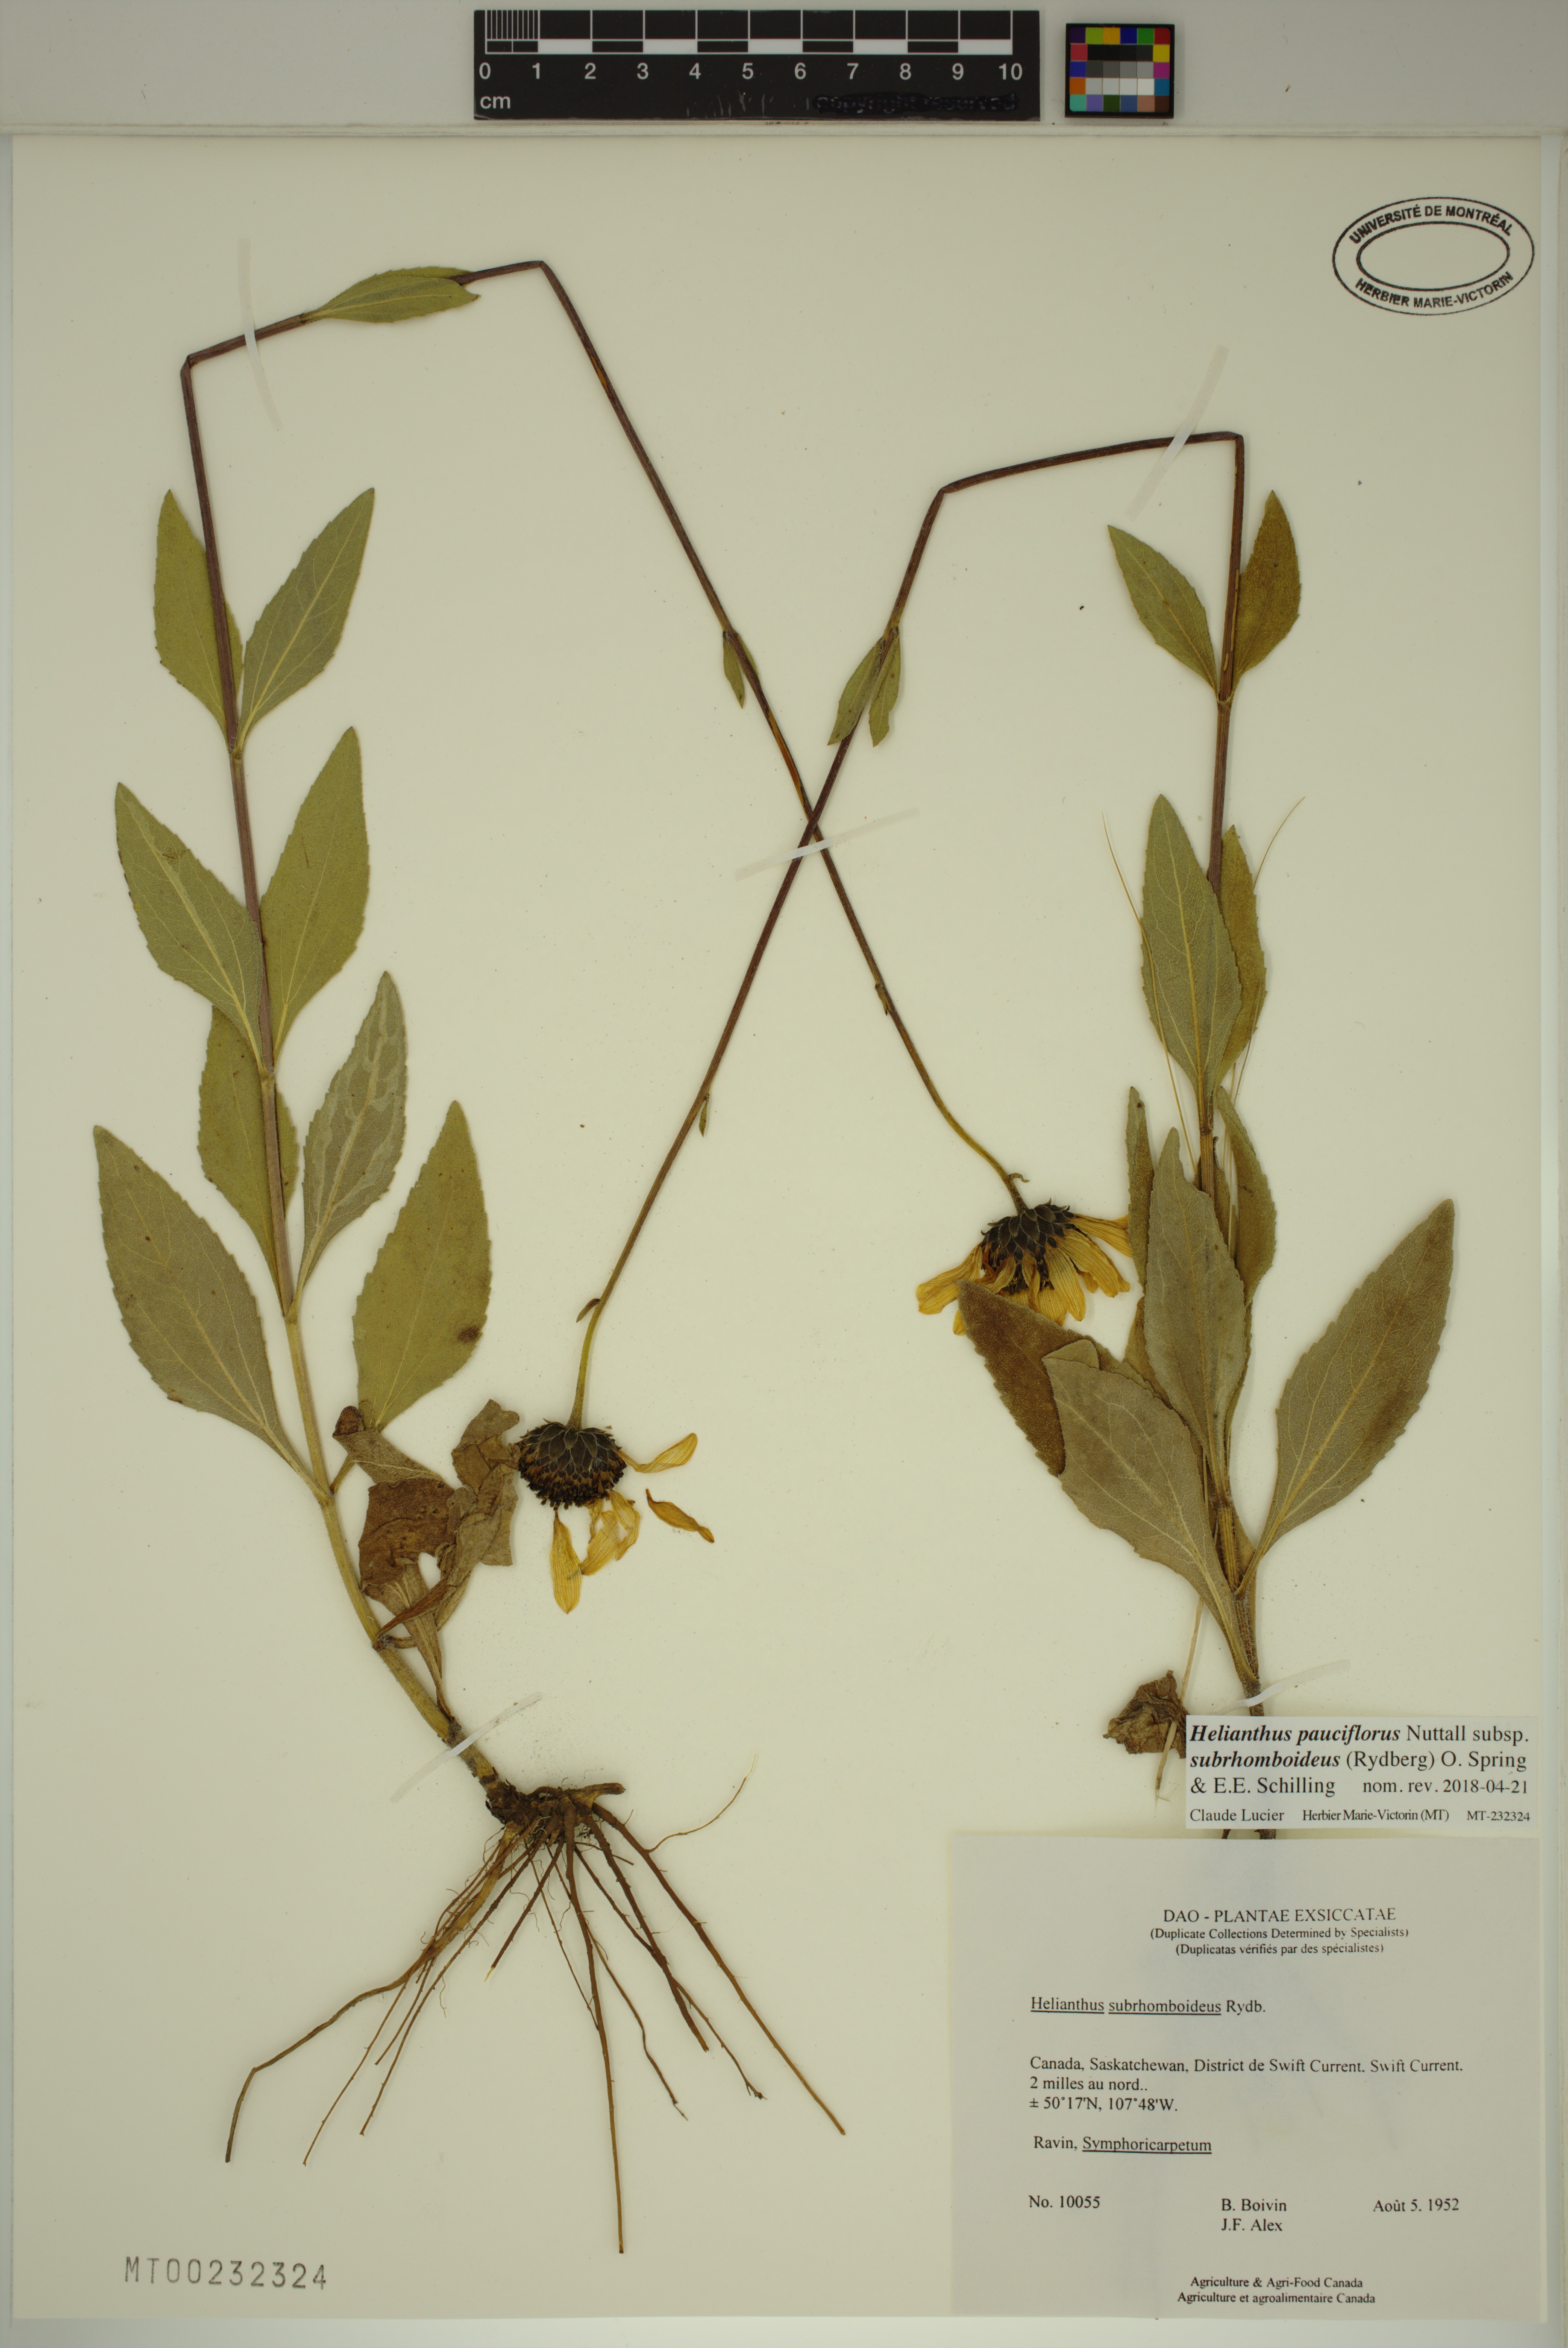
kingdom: Plantae
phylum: Tracheophyta
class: Magnoliopsida
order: Asterales
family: Asteraceae
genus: Helianthus
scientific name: Helianthus pauciflorus
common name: Stiff sunflower
